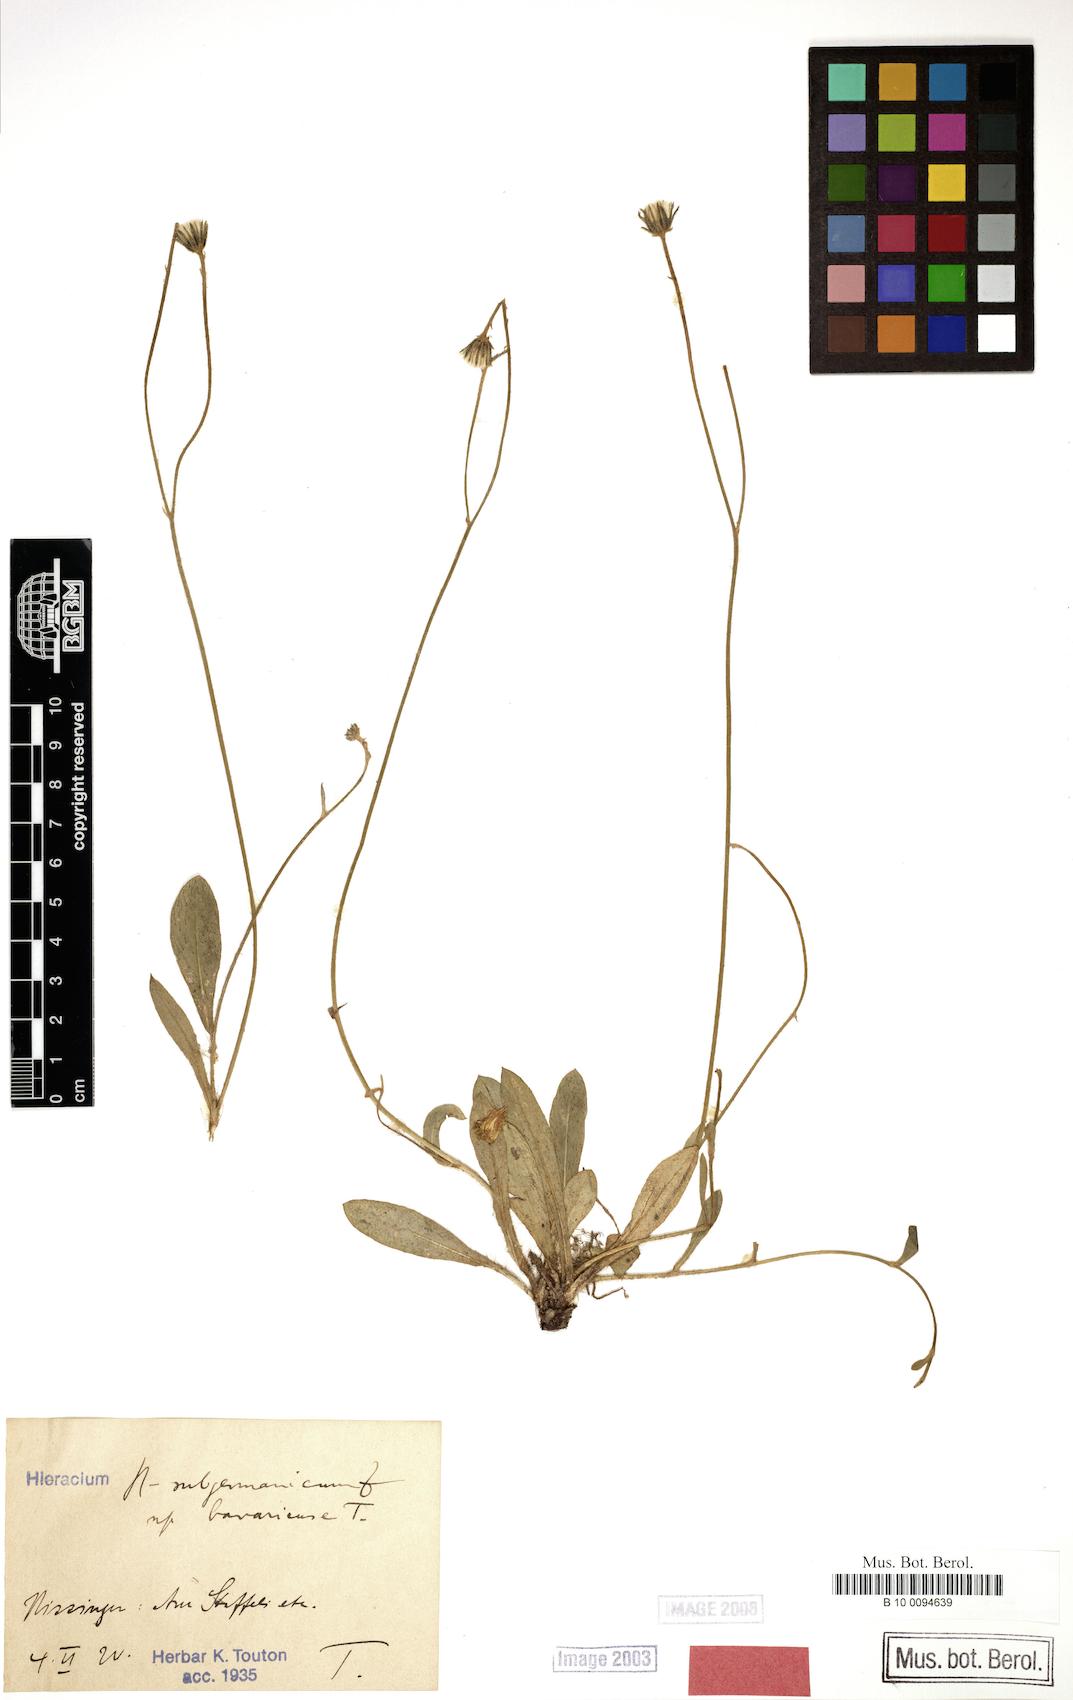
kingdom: Plantae
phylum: Tracheophyta
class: Magnoliopsida
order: Asterales
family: Asteraceae
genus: Pilosella
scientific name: Pilosella pilosellina
